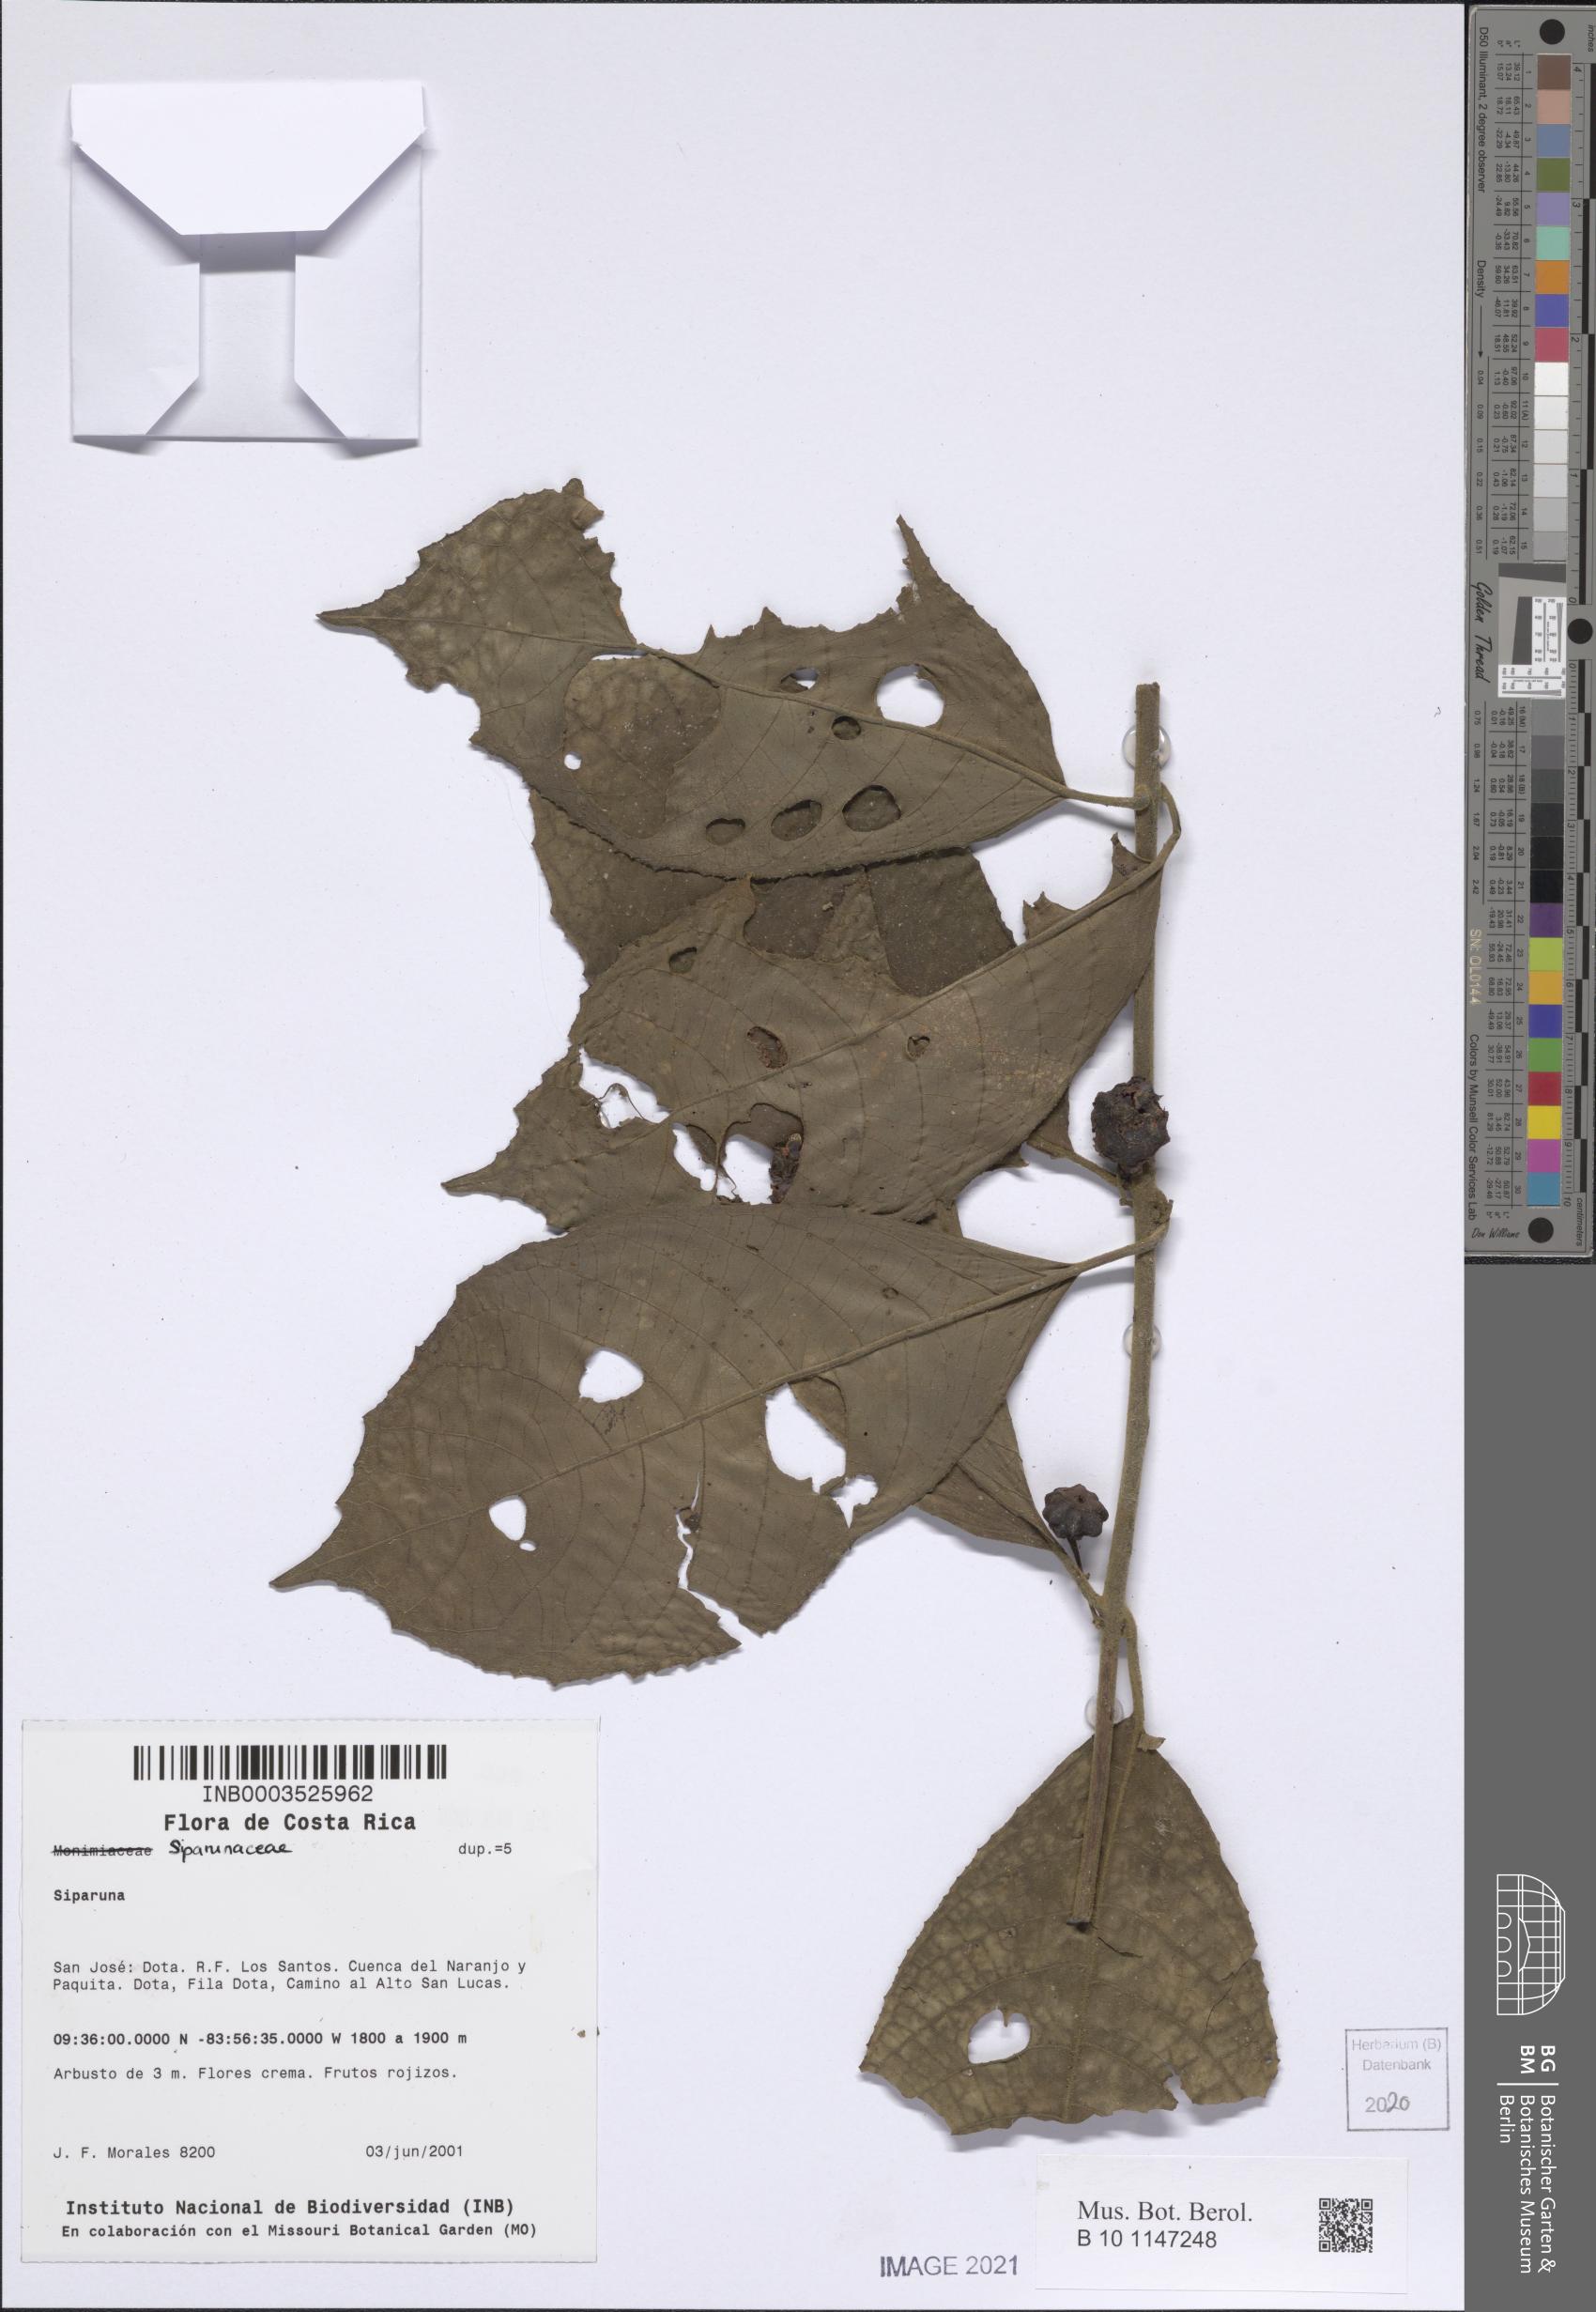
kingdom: Plantae
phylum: Tracheophyta
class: Magnoliopsida
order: Laurales
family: Siparunaceae
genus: Siparuna
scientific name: Siparuna
